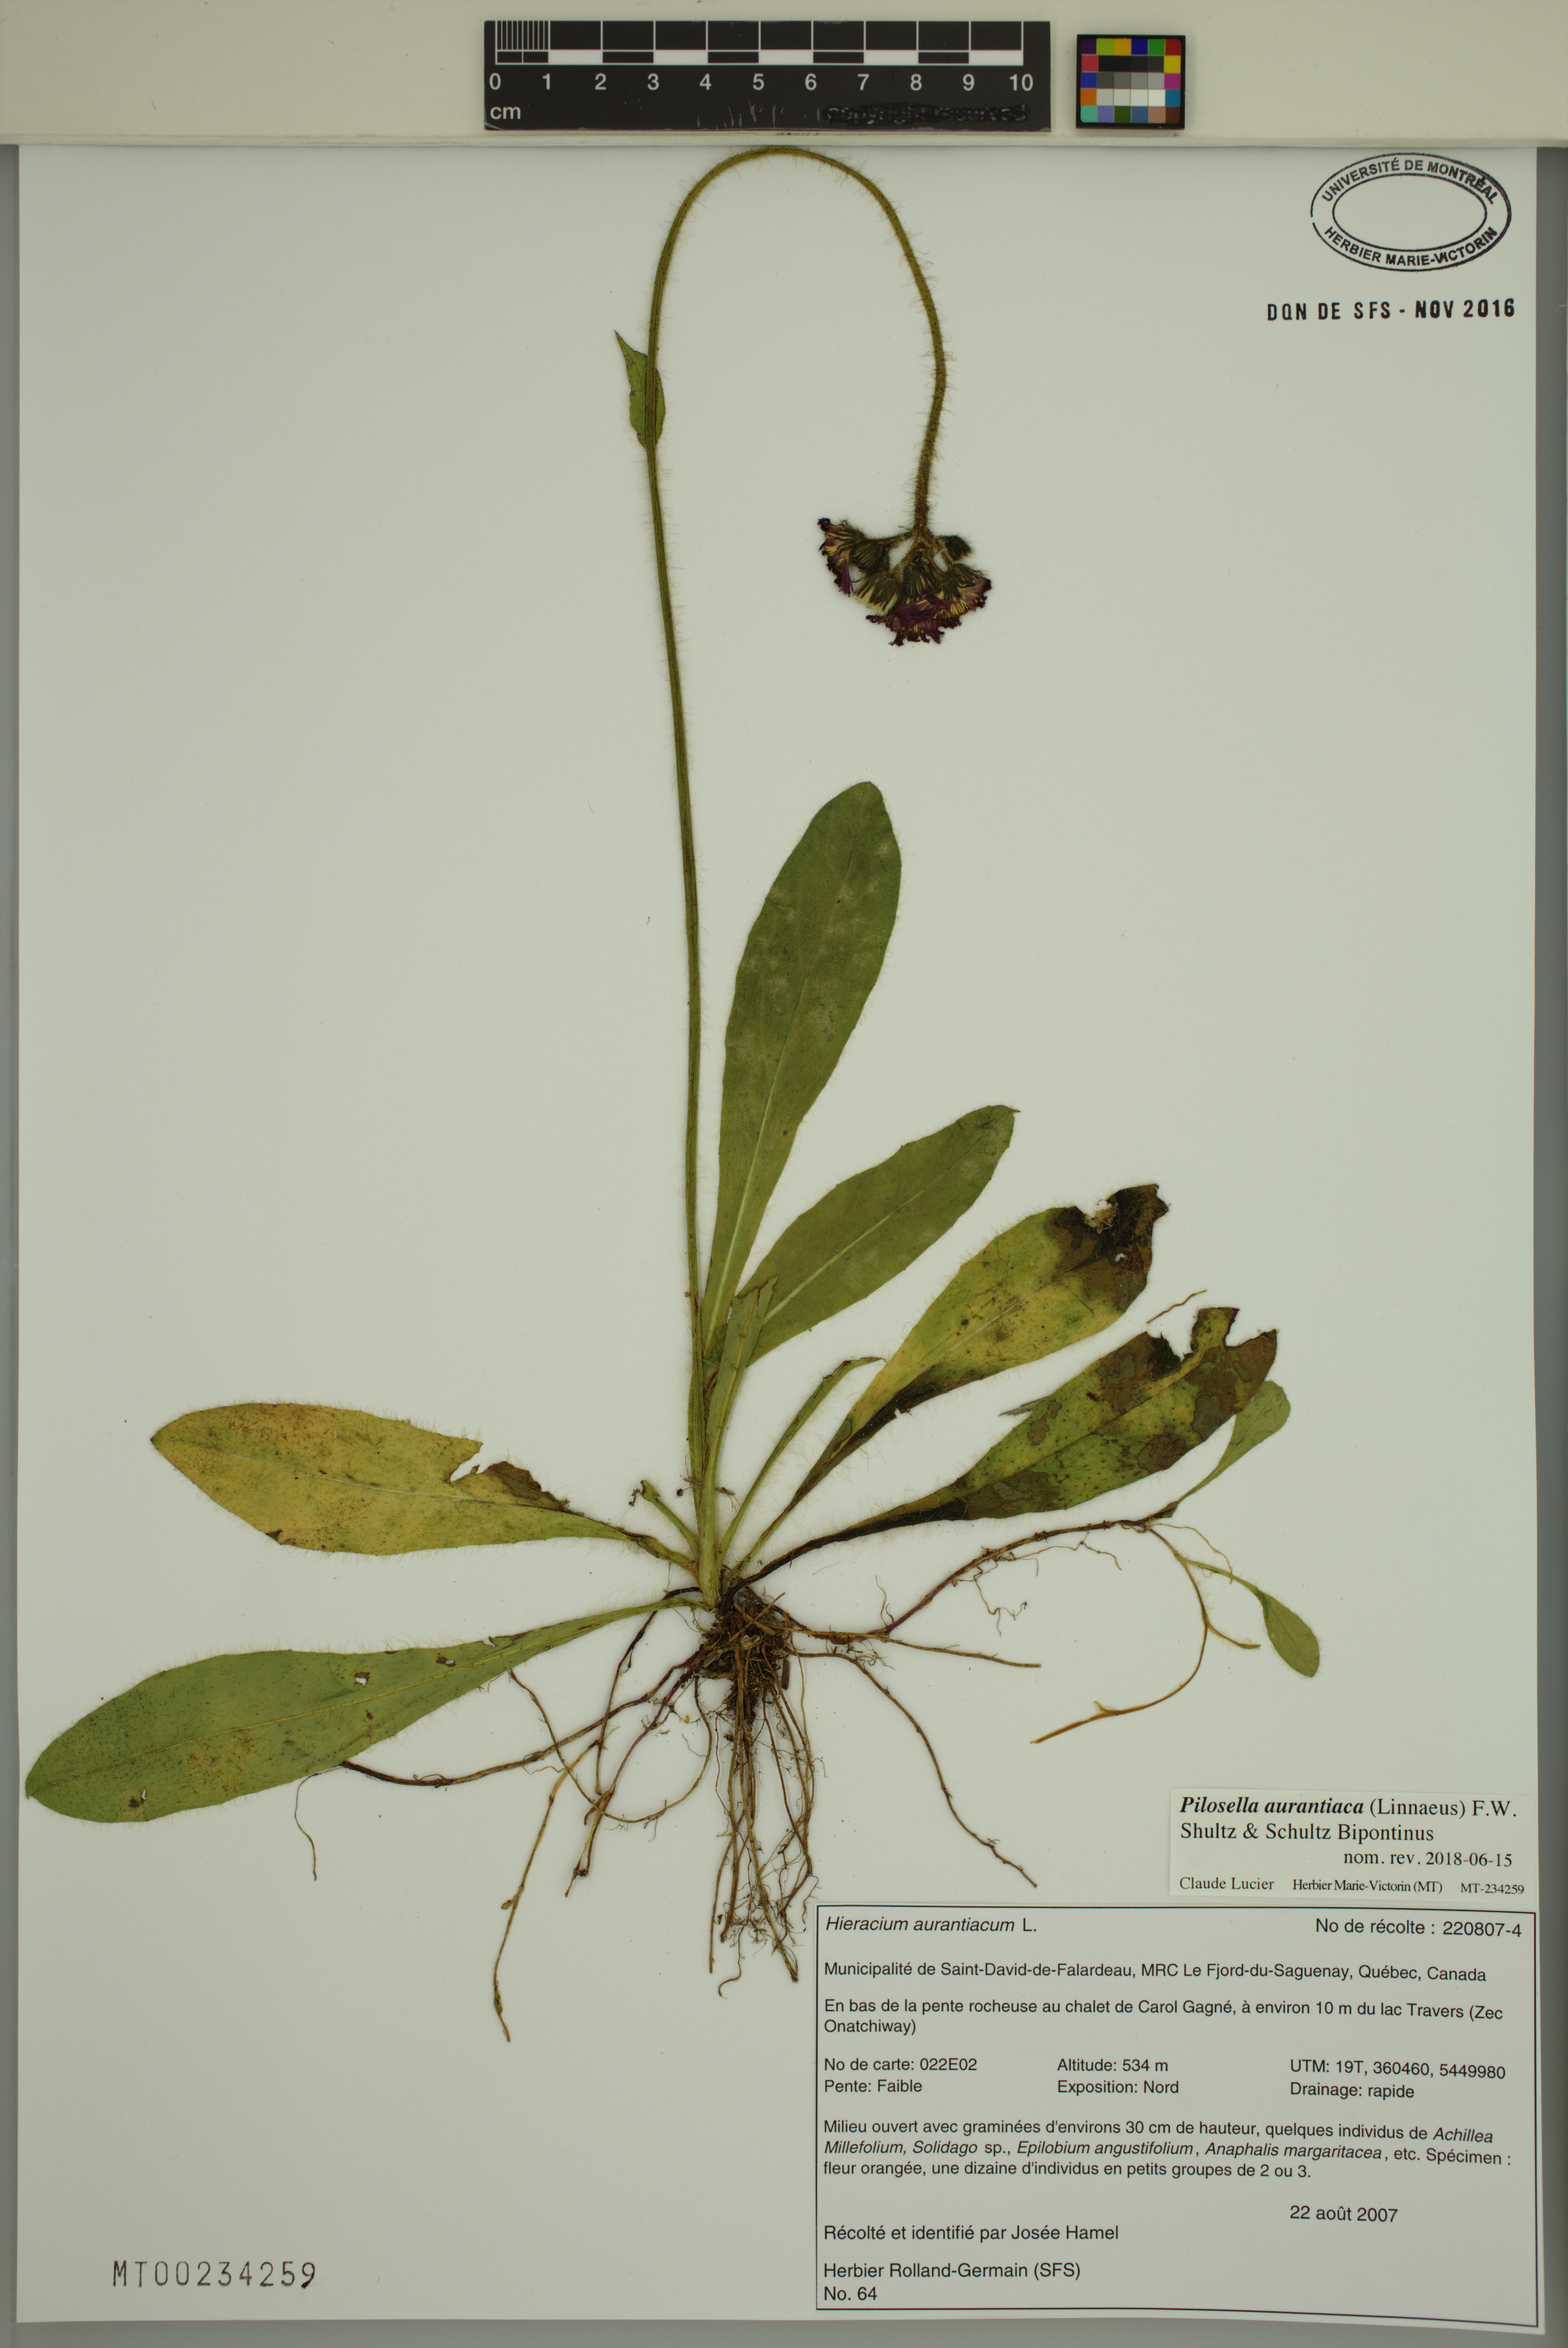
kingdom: Plantae
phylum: Tracheophyta
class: Magnoliopsida
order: Asterales
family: Asteraceae
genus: Pilosella
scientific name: Pilosella aurantiaca
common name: Fox-and-cubs
